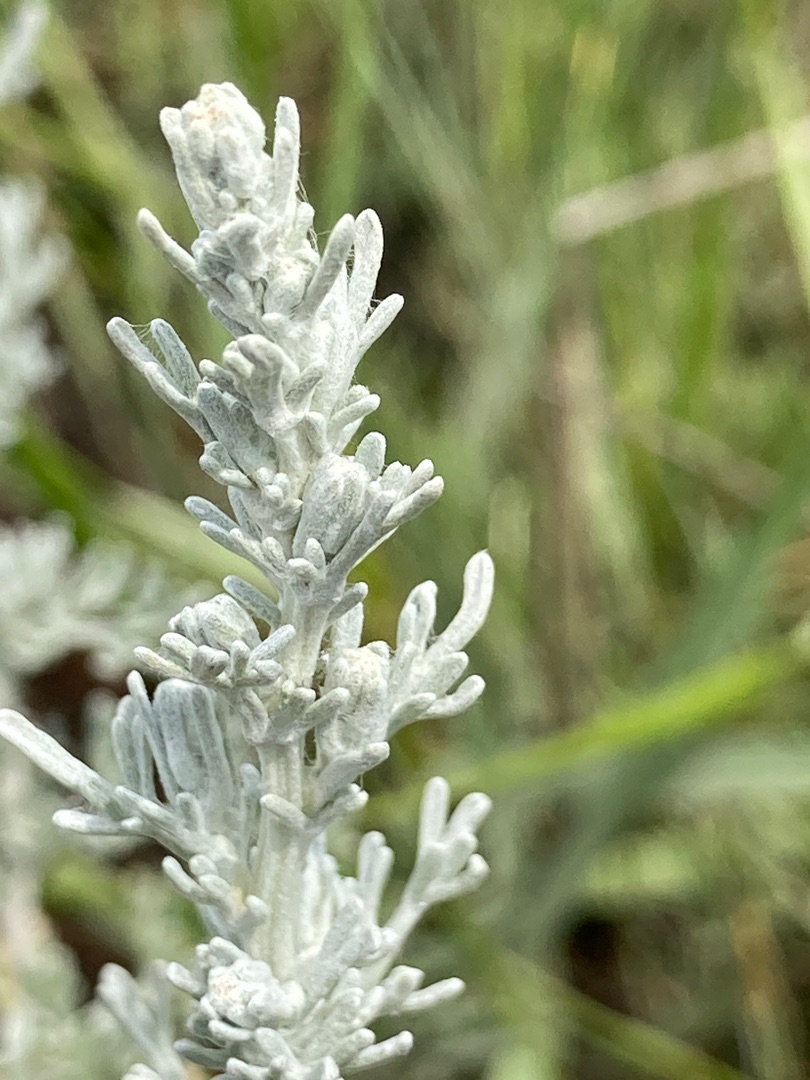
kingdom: Plantae
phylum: Tracheophyta
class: Magnoliopsida
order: Asterales
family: Asteraceae
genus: Artemisia
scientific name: Artemisia maritima
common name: Strandmalurt
